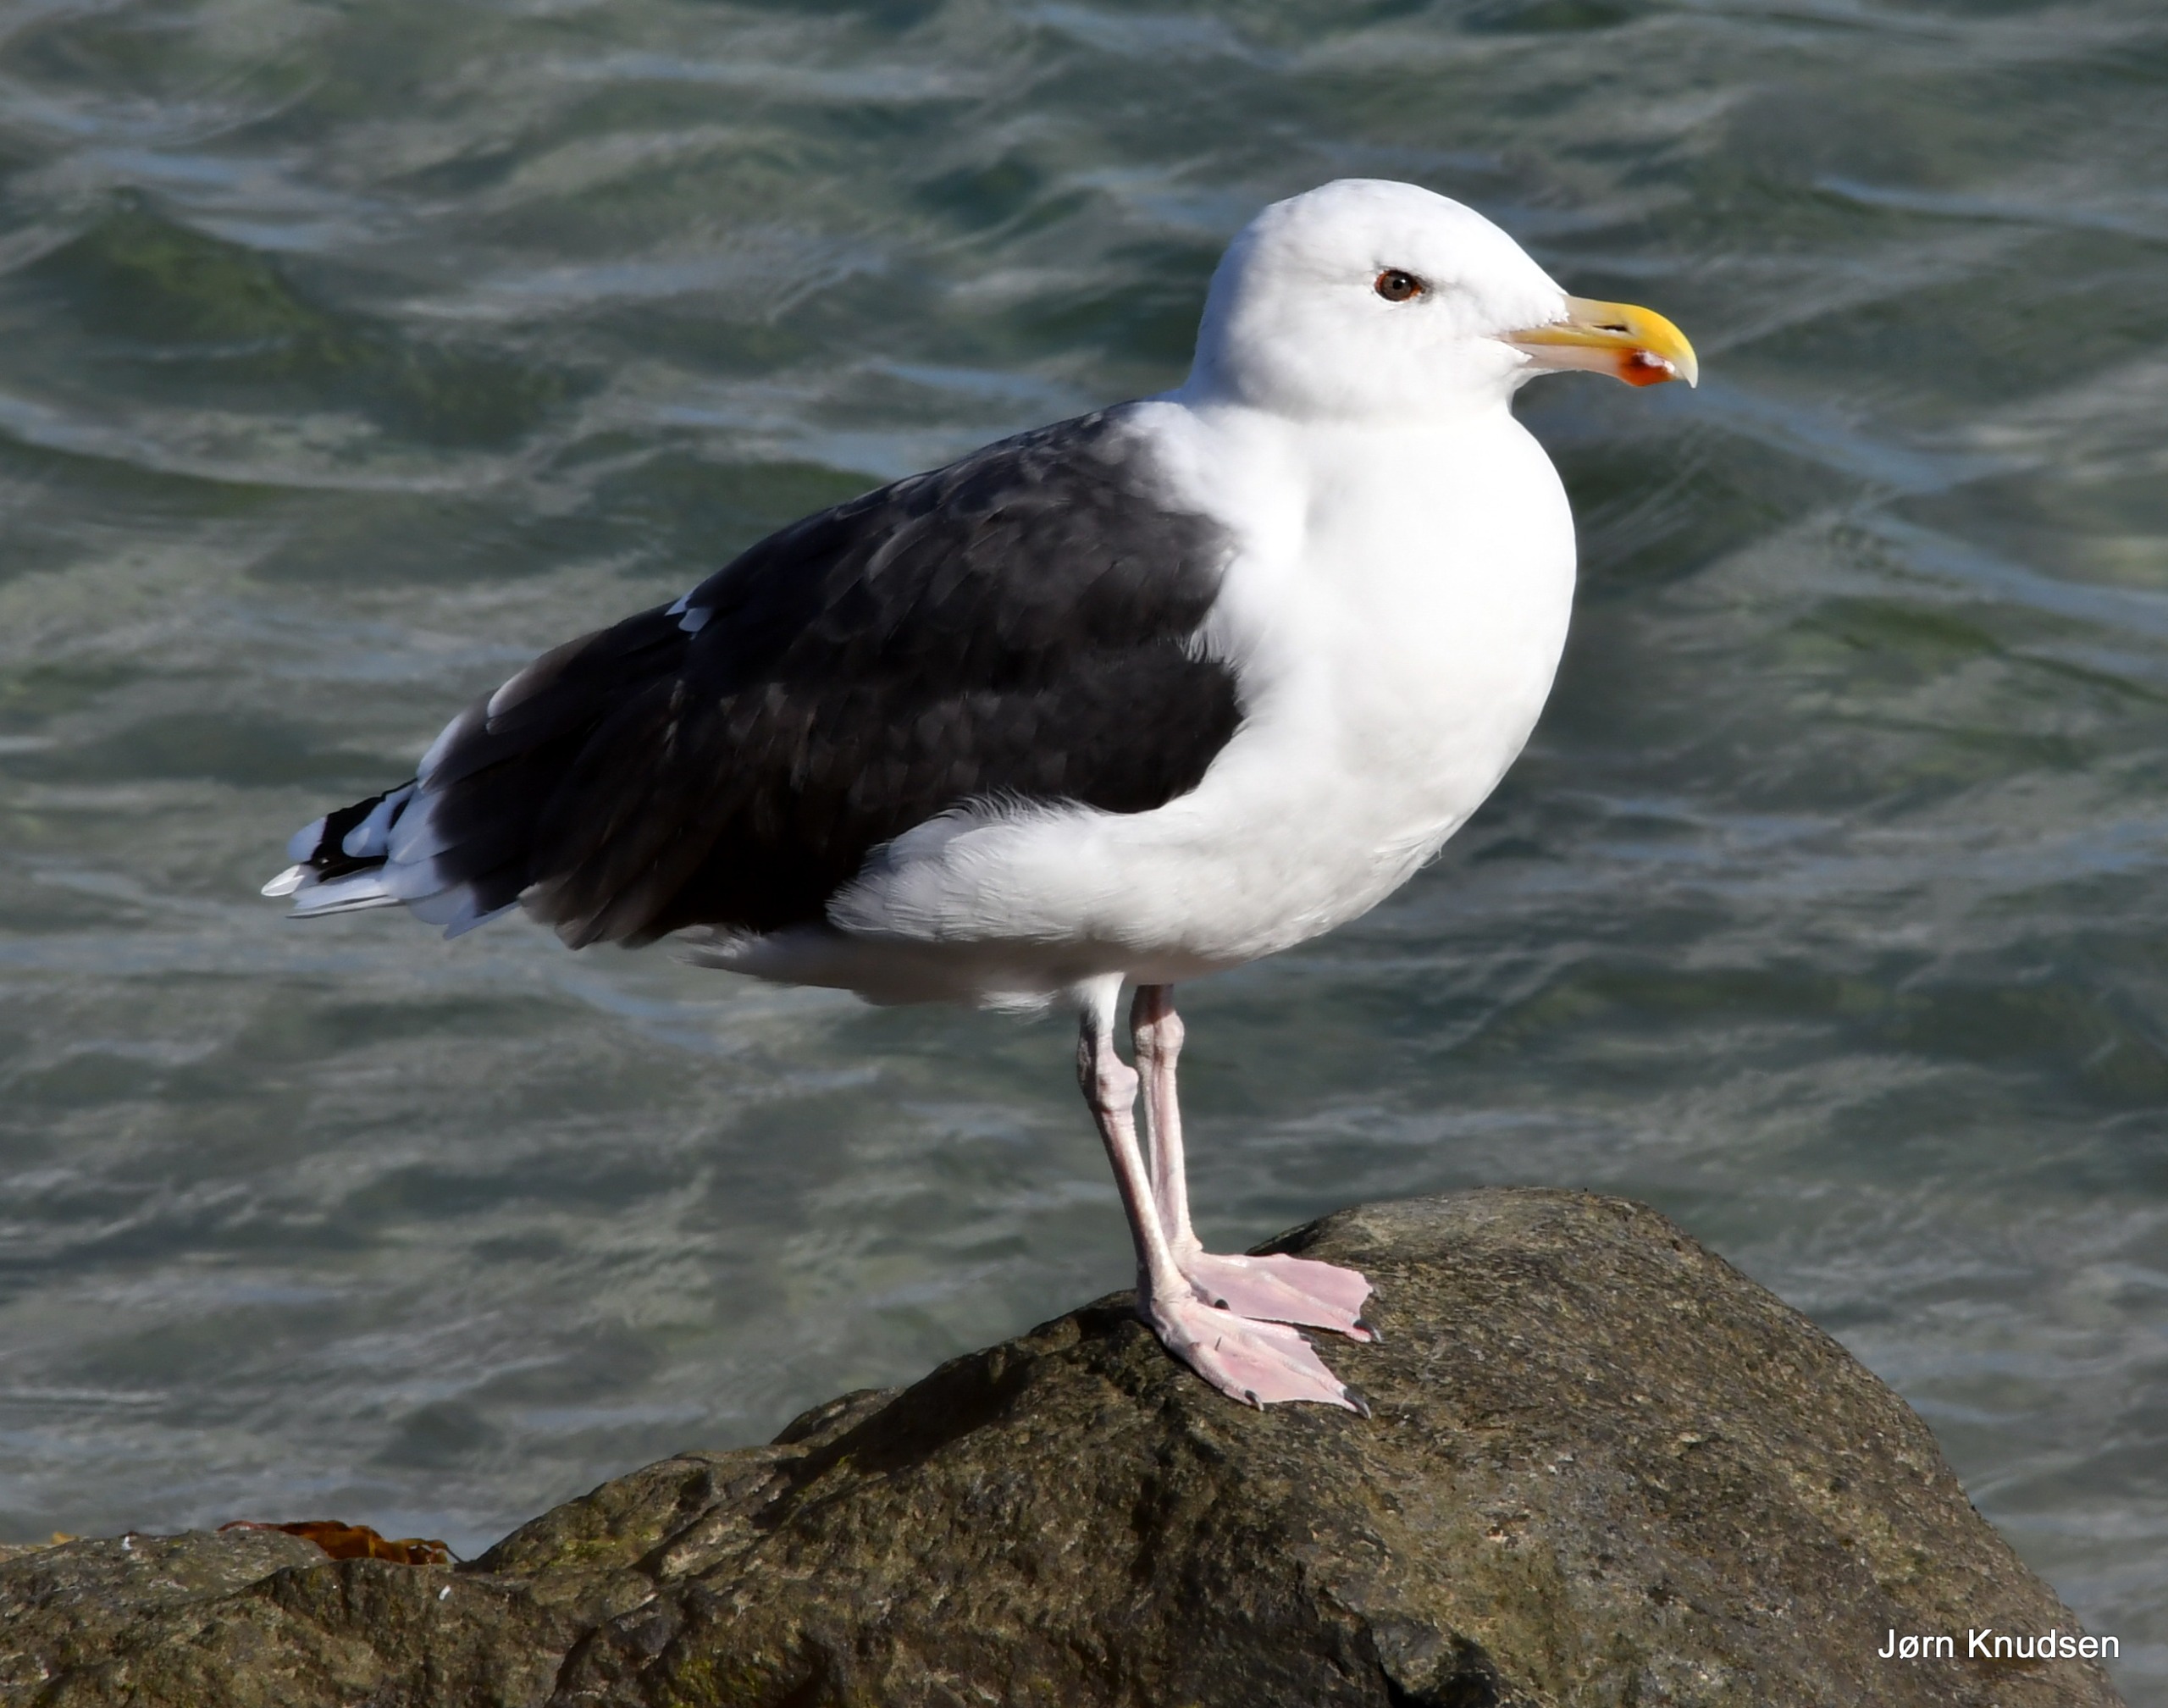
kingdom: Animalia
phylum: Chordata
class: Aves
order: Charadriiformes
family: Laridae
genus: Larus
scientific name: Larus marinus
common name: Svartbag
